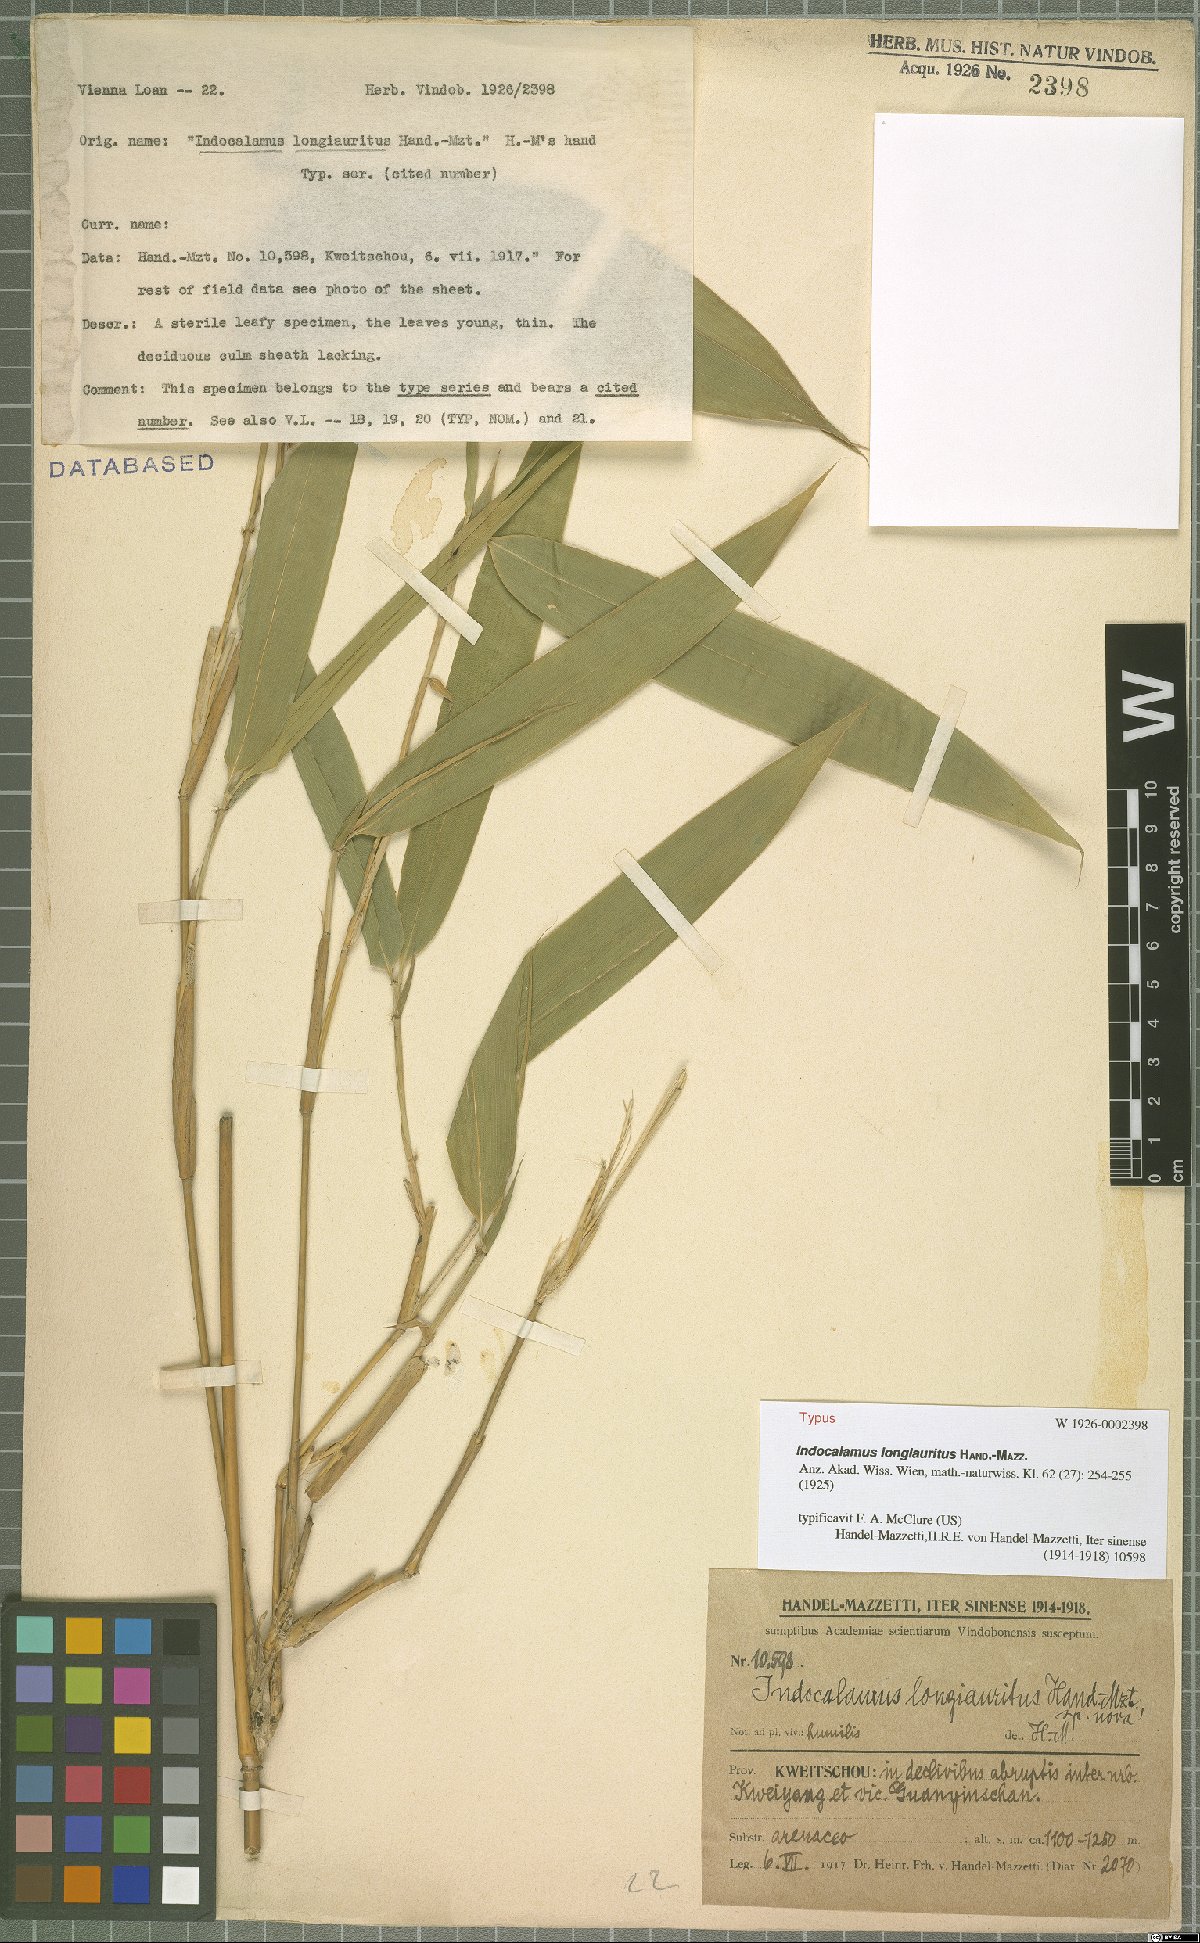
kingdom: Plantae
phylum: Tracheophyta
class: Liliopsida
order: Poales
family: Poaceae
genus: Indocalamus
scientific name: Indocalamus longiauritus
